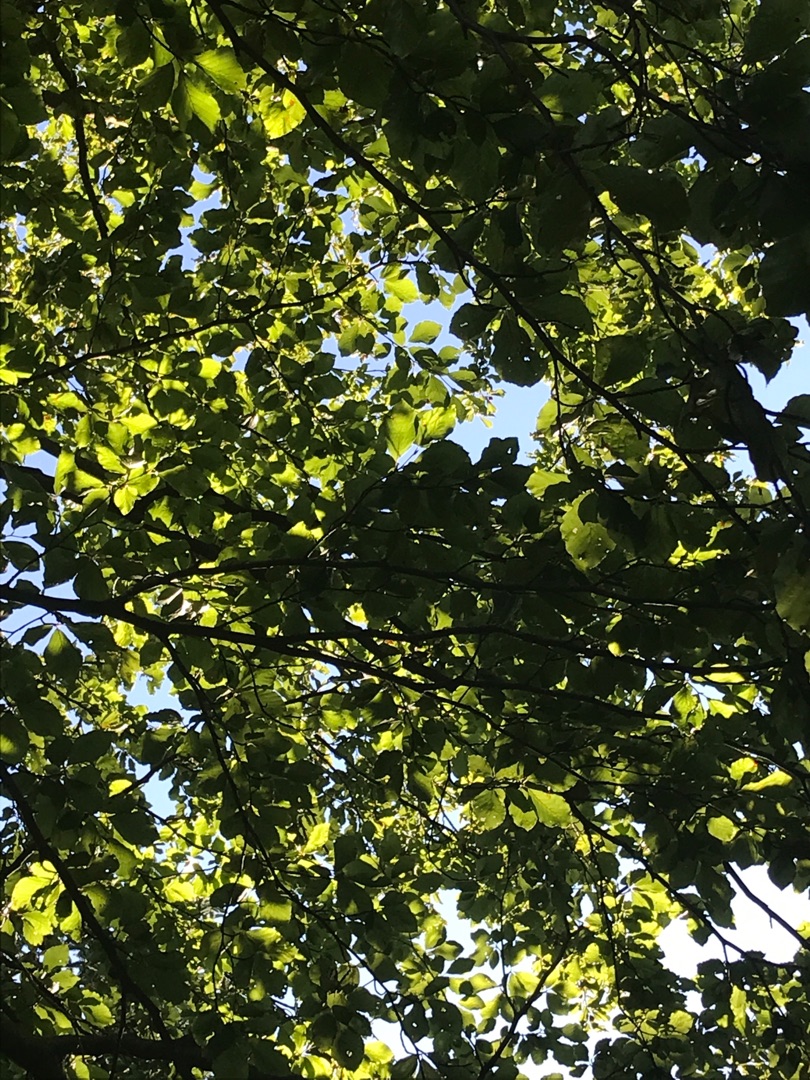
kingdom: Animalia
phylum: Chordata
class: Mammalia
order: Rodentia
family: Sciuridae
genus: Sciurus
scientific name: Sciurus vulgaris
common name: Egern
